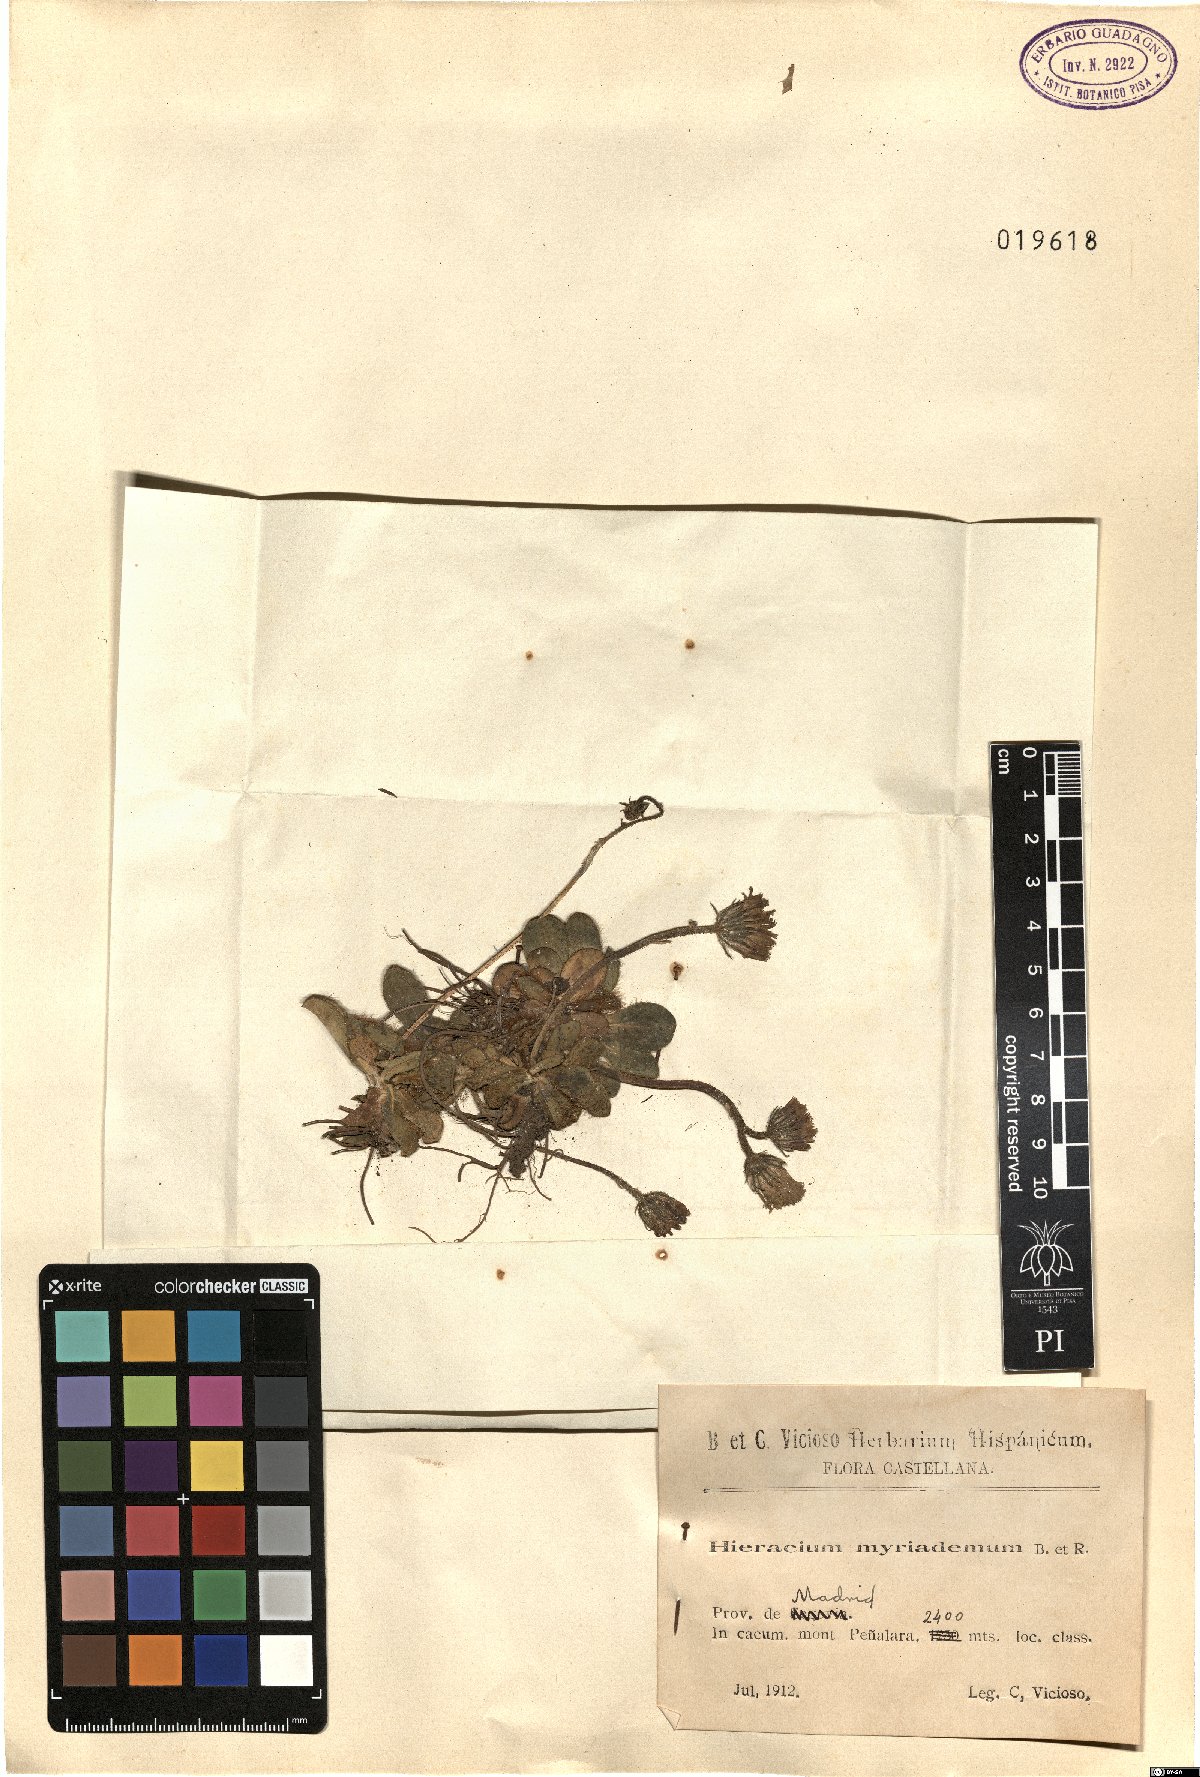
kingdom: Plantae
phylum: Tracheophyta
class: Magnoliopsida
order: Asterales
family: Asteraceae
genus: Pilosella
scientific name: Pilosella vahlii
